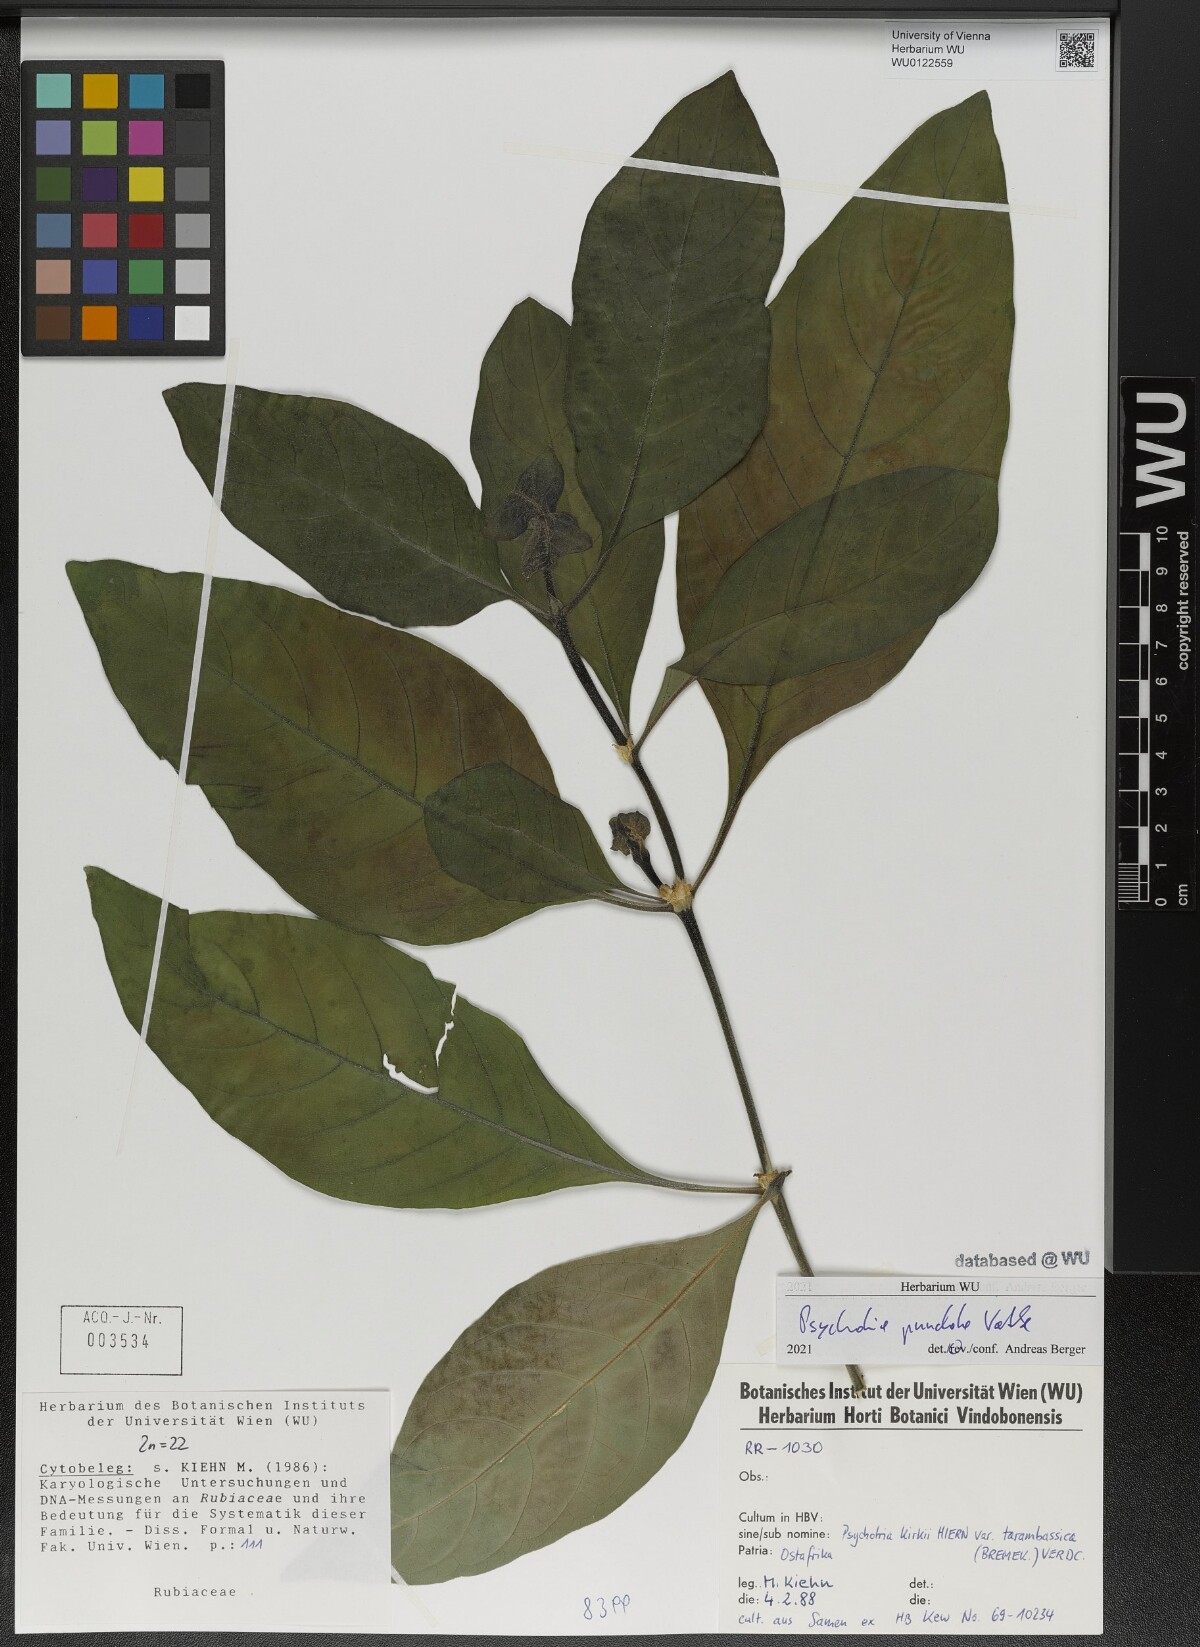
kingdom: Plantae
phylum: Tracheophyta
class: Magnoliopsida
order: Gentianales
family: Rubiaceae
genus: Psychotria
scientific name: Psychotria punctata
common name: Dotted wild coffee
